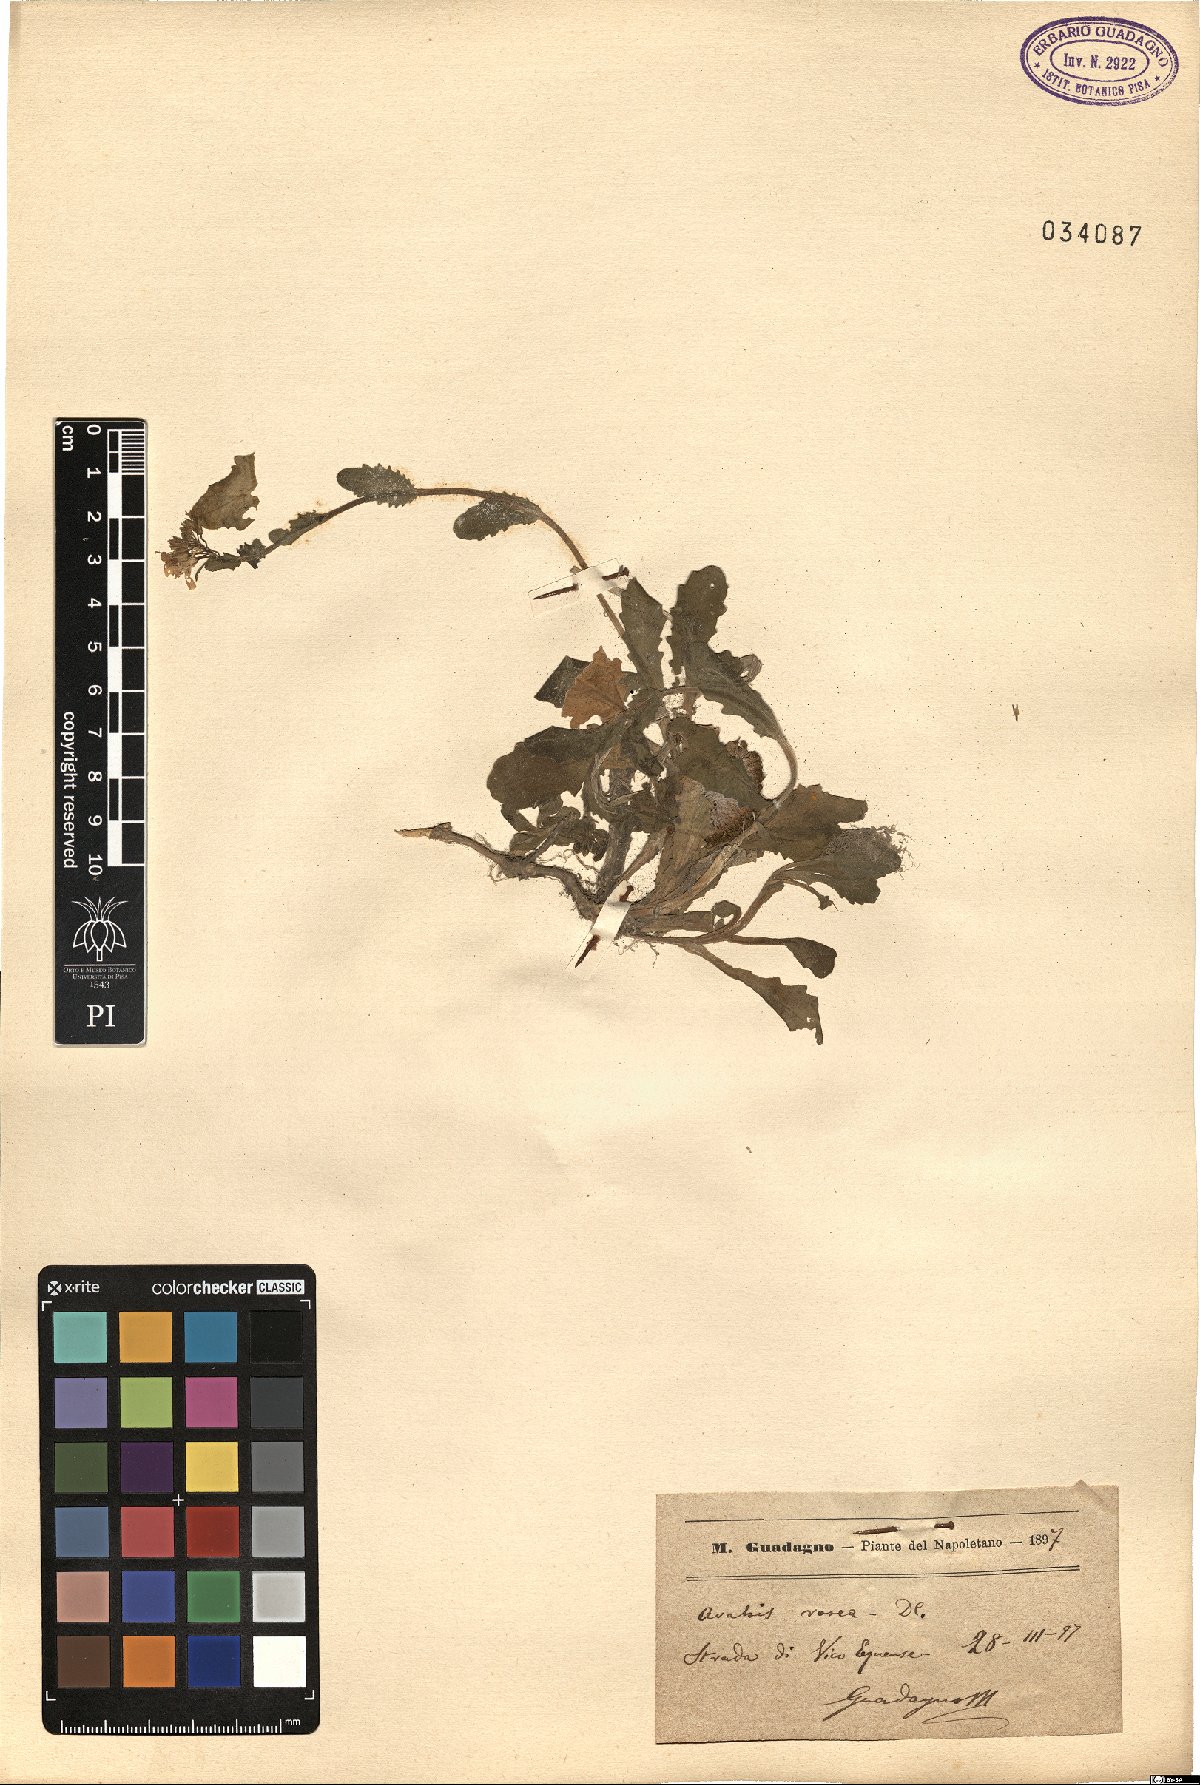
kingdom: Plantae
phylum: Tracheophyta
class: Magnoliopsida
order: Brassicales
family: Brassicaceae
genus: Arabis
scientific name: Arabis collina
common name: Rosy cress
